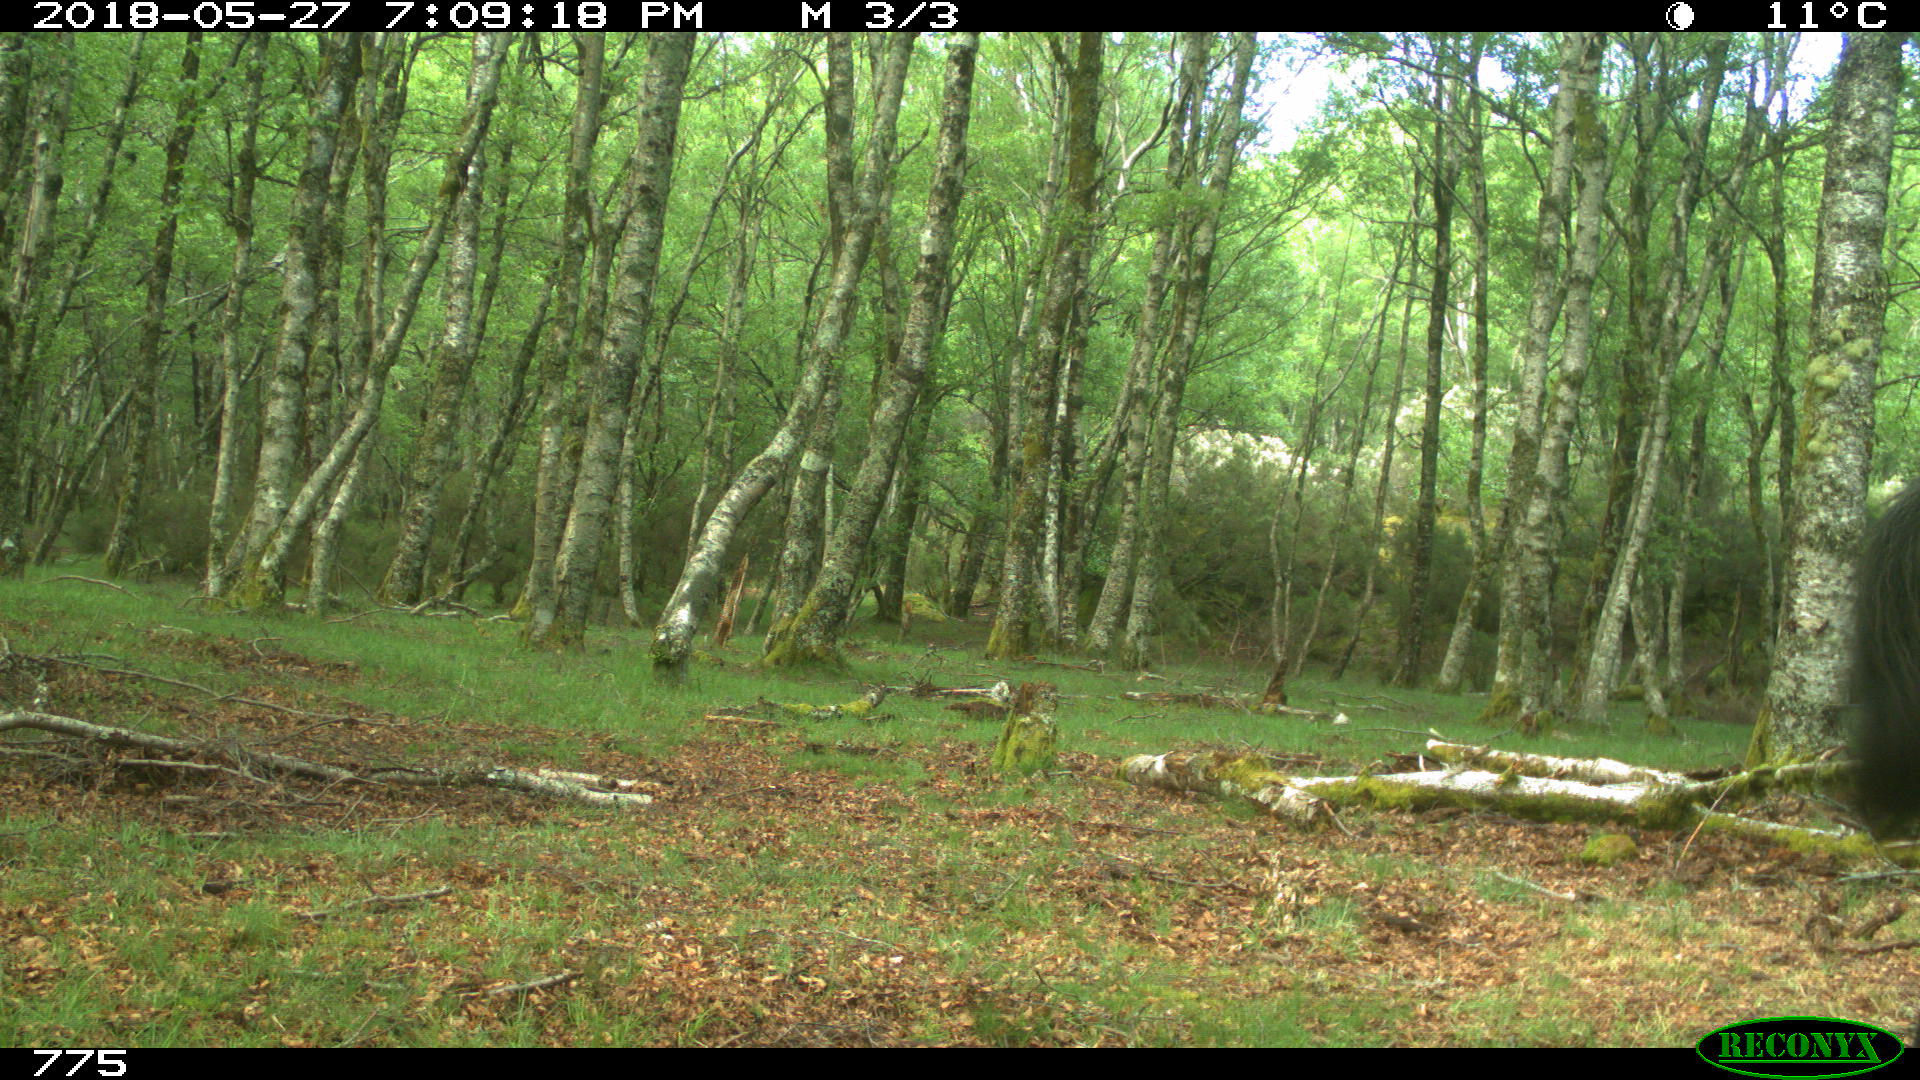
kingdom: Animalia
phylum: Chordata
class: Mammalia
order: Perissodactyla
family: Equidae
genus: Equus
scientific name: Equus caballus
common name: Horse
